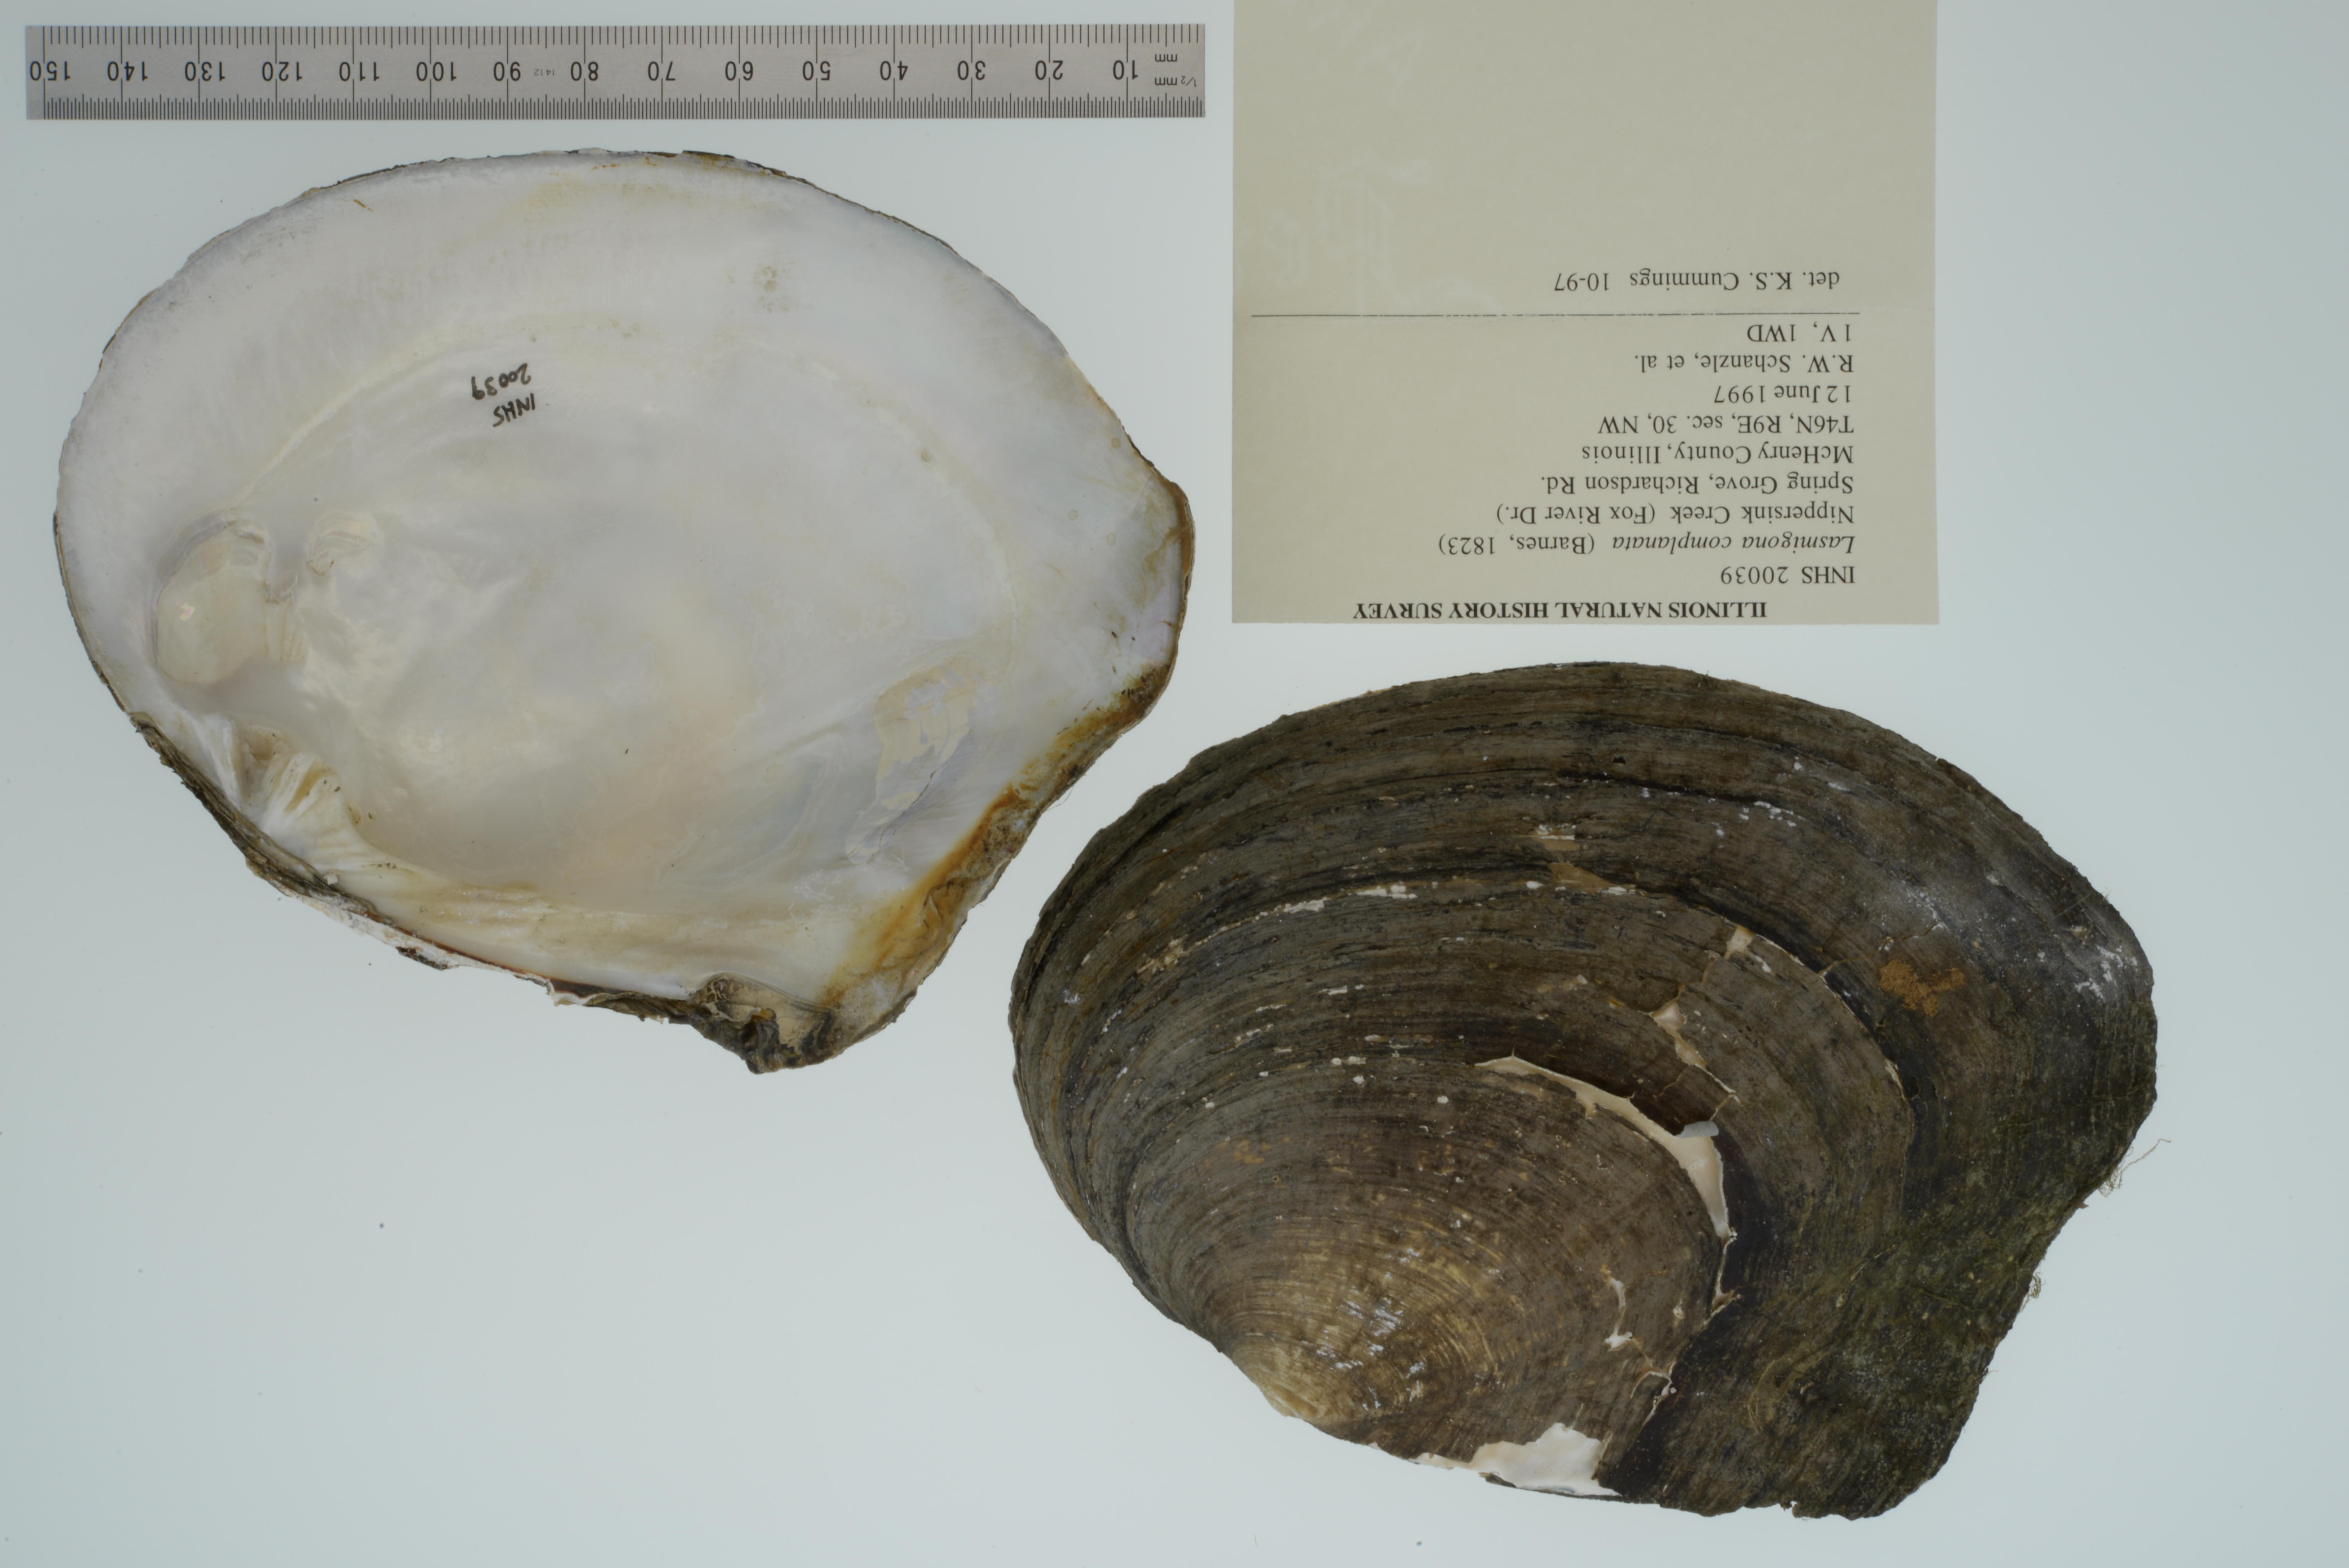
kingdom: Animalia
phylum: Mollusca
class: Bivalvia
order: Unionida
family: Unionidae
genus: Lasmigona
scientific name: Lasmigona complanata
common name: White heelsplitter
